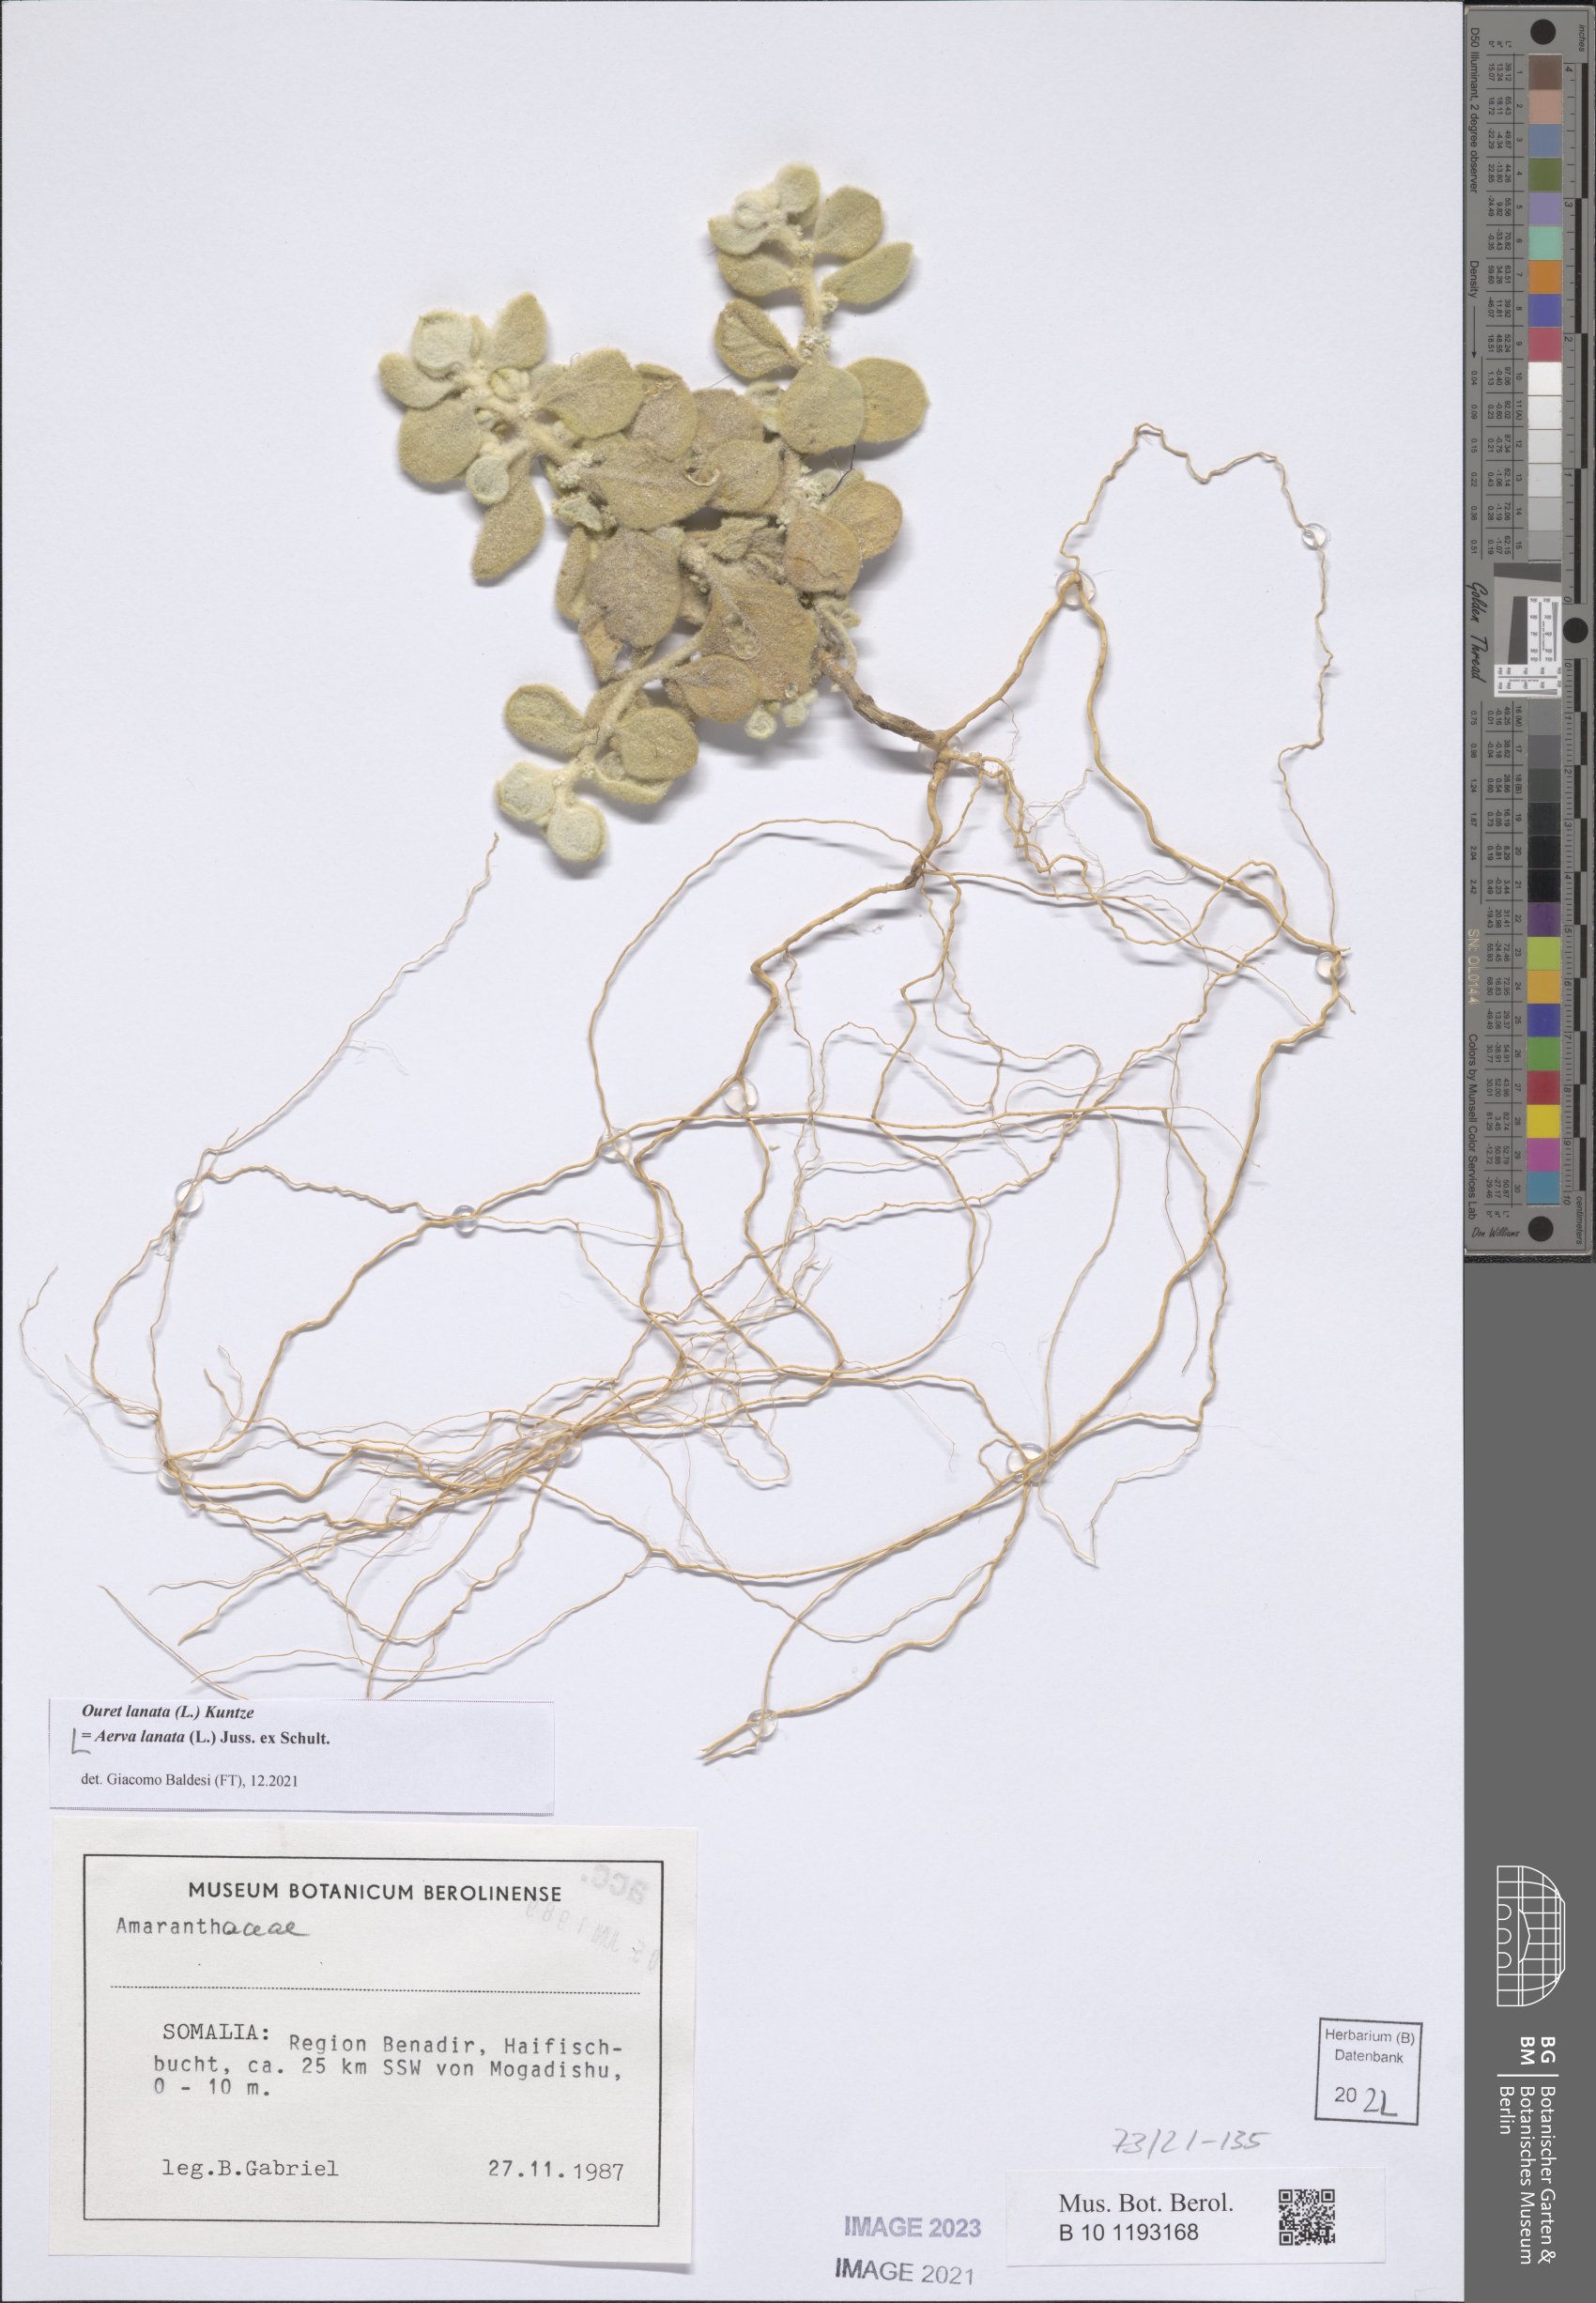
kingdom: Plantae
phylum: Tracheophyta
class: Magnoliopsida
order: Caryophyllales
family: Amaranthaceae
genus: Ouret
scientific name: Ouret lanata
